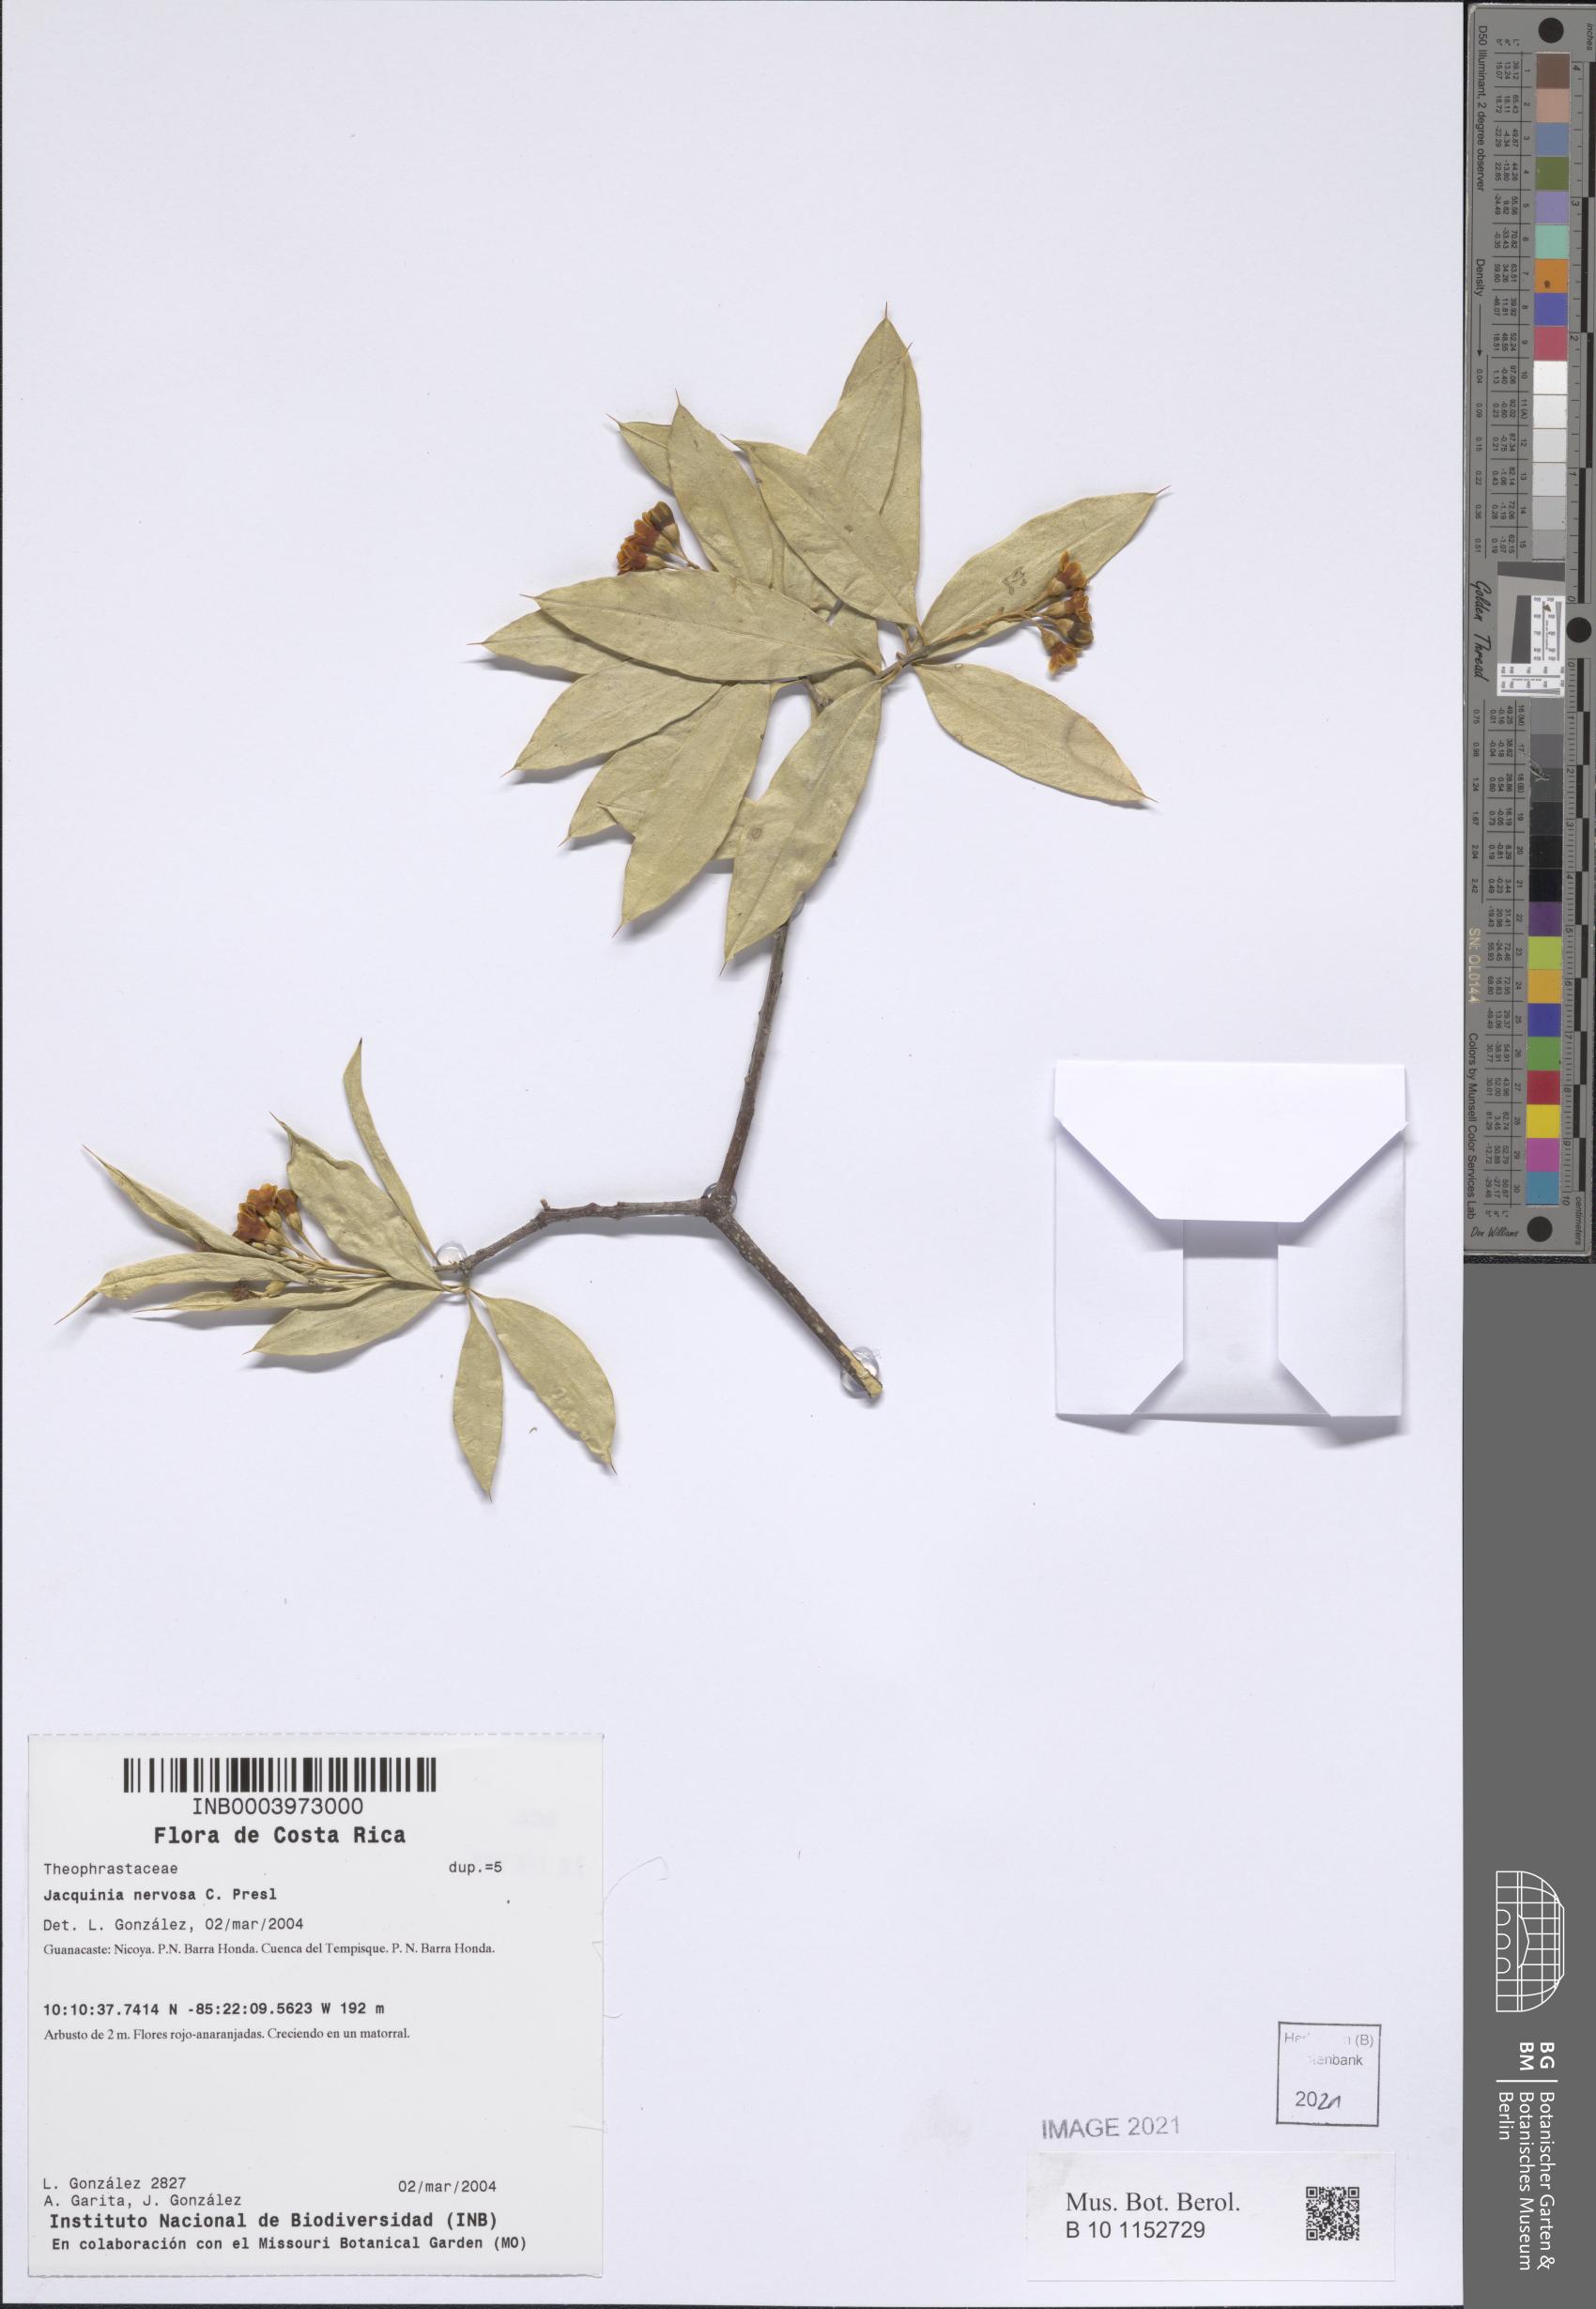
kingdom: Plantae
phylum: Tracheophyta
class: Magnoliopsida
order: Ericales
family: Primulaceae
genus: Bonellia
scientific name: Bonellia nervosa
